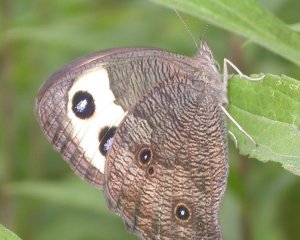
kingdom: Animalia
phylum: Arthropoda
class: Insecta
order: Lepidoptera
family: Nymphalidae
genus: Cercyonis
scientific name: Cercyonis pegala
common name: Common Wood-Nymph
